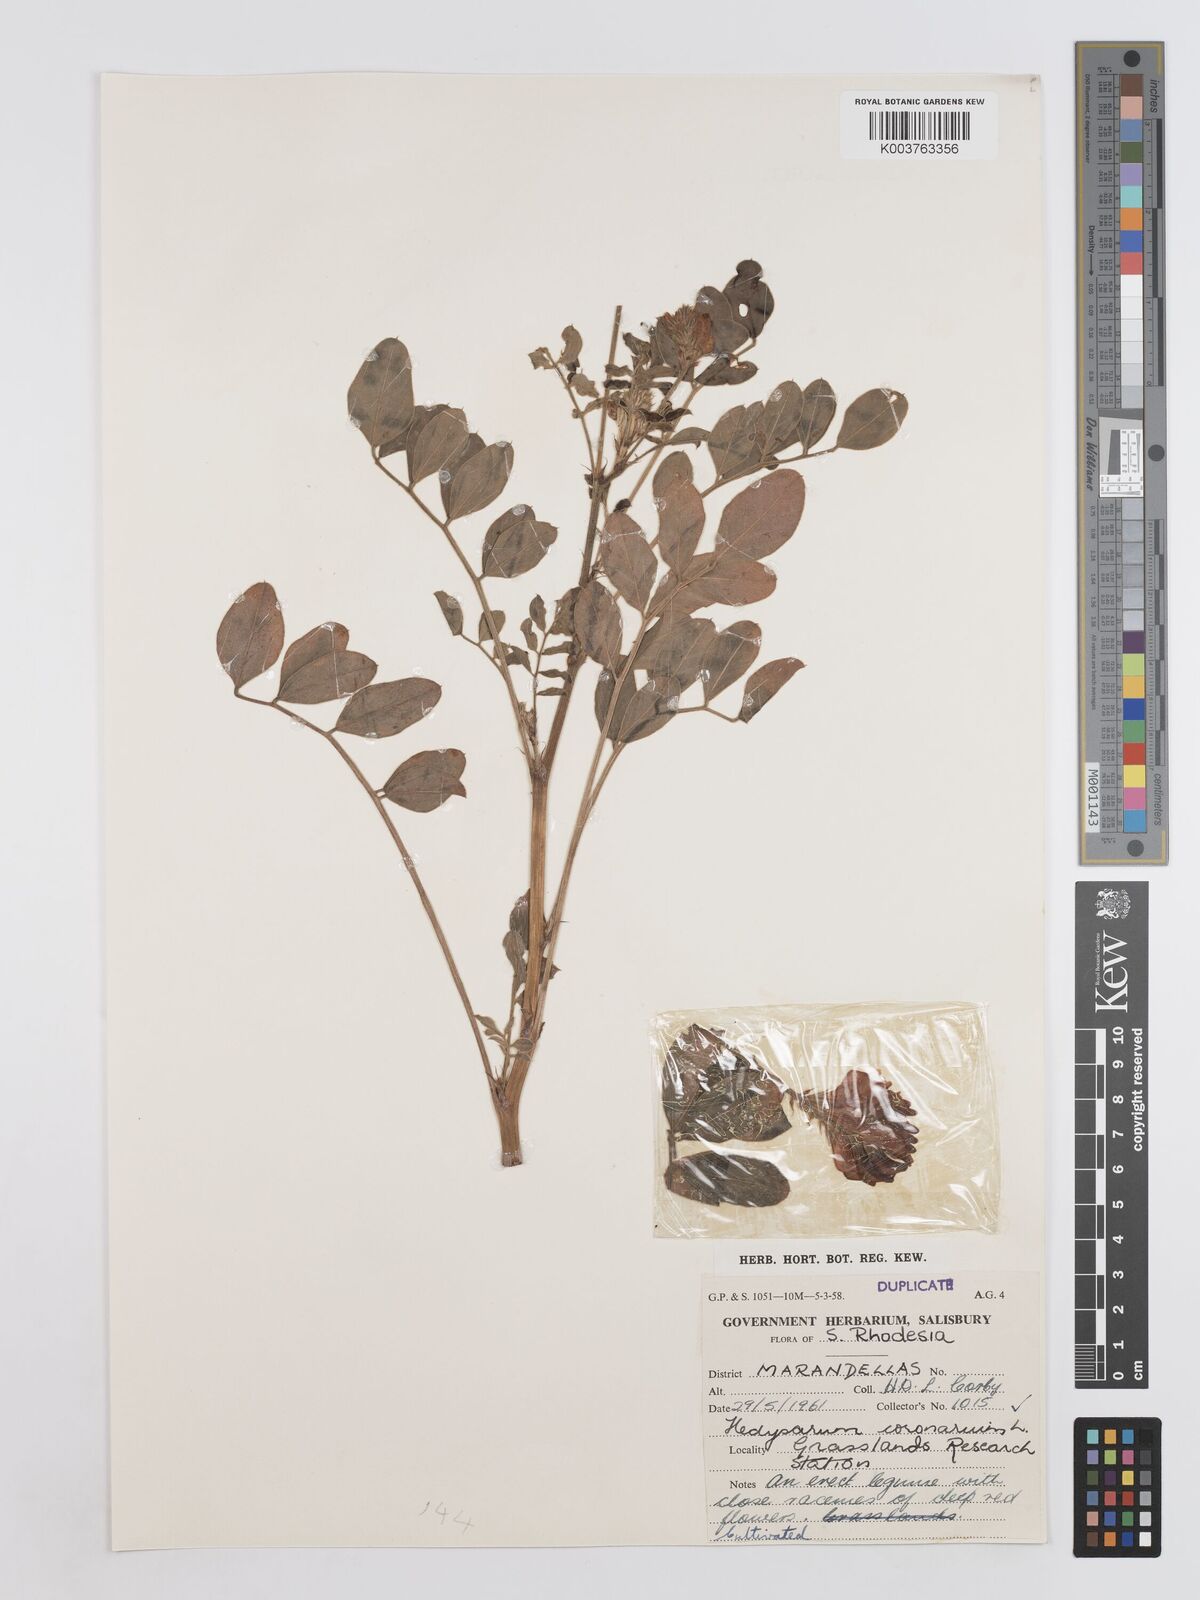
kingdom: Plantae
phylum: Tracheophyta
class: Magnoliopsida
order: Fabales
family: Fabaceae
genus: Sulla
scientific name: Sulla coronaria
